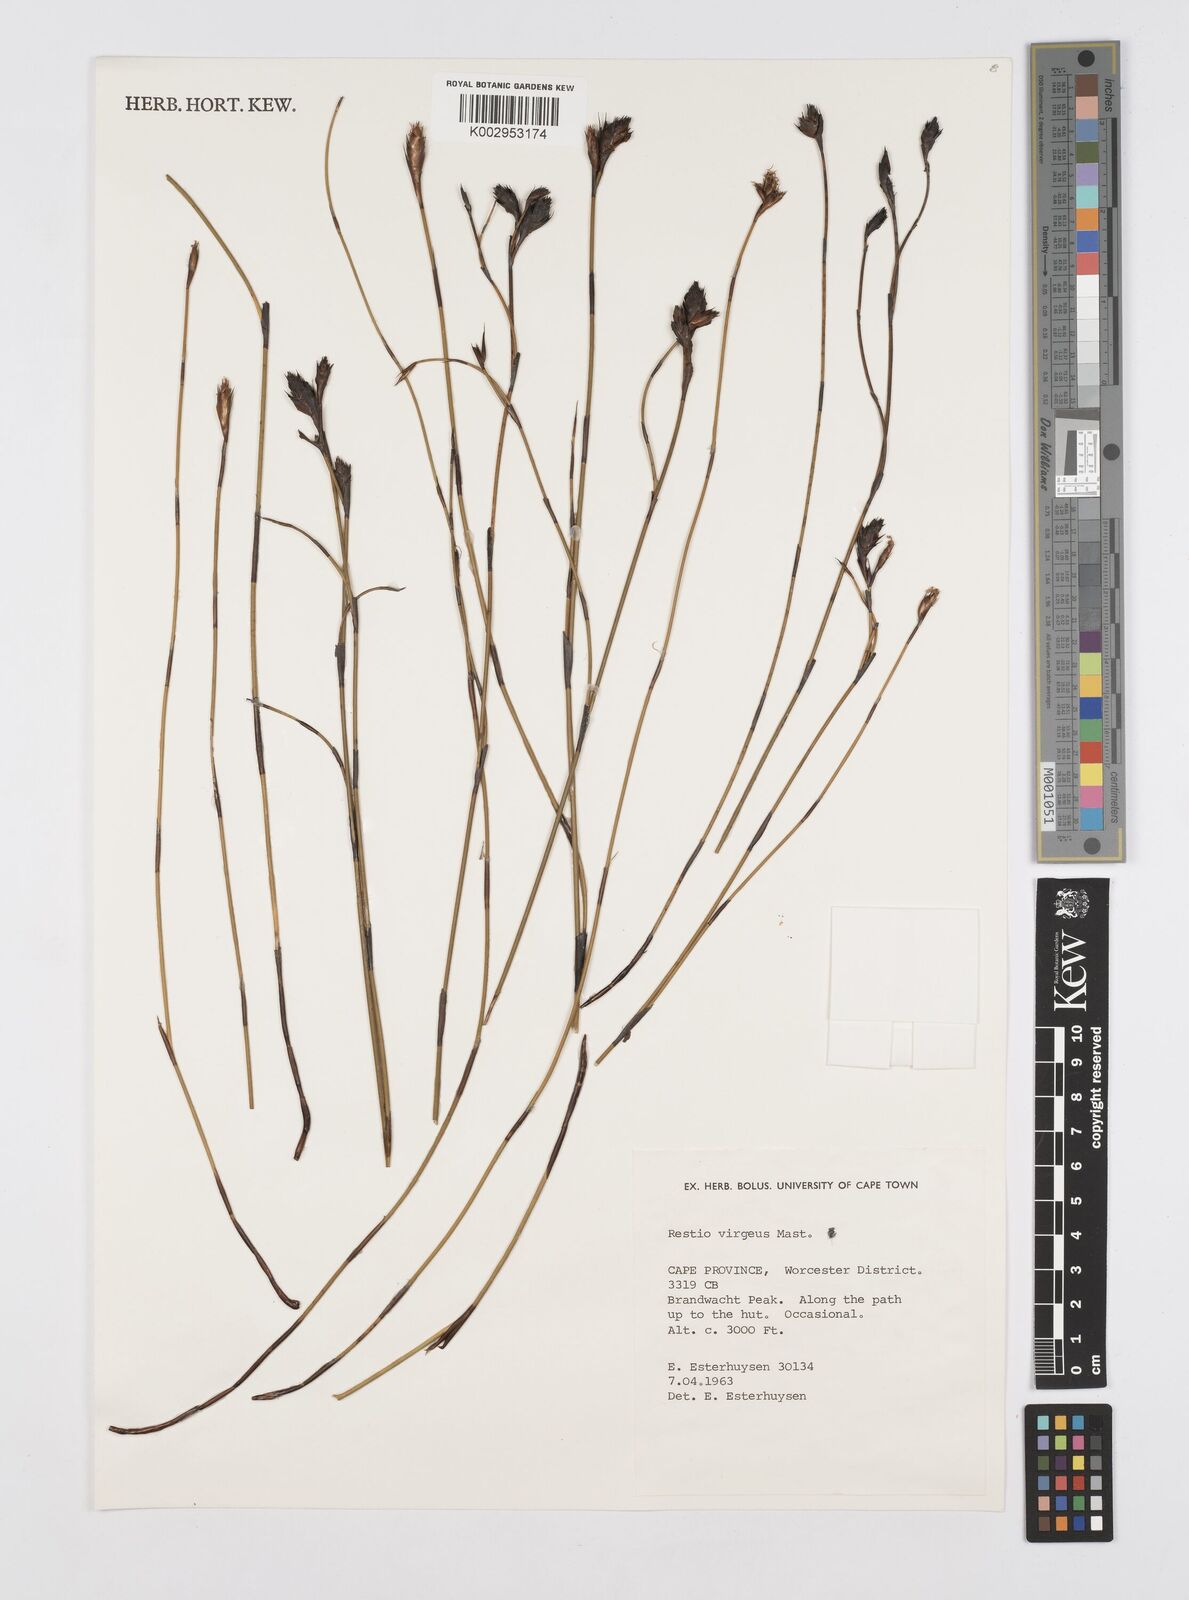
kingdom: Plantae
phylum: Tracheophyta
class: Liliopsida
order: Poales
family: Restionaceae
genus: Restio
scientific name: Restio virgeus
